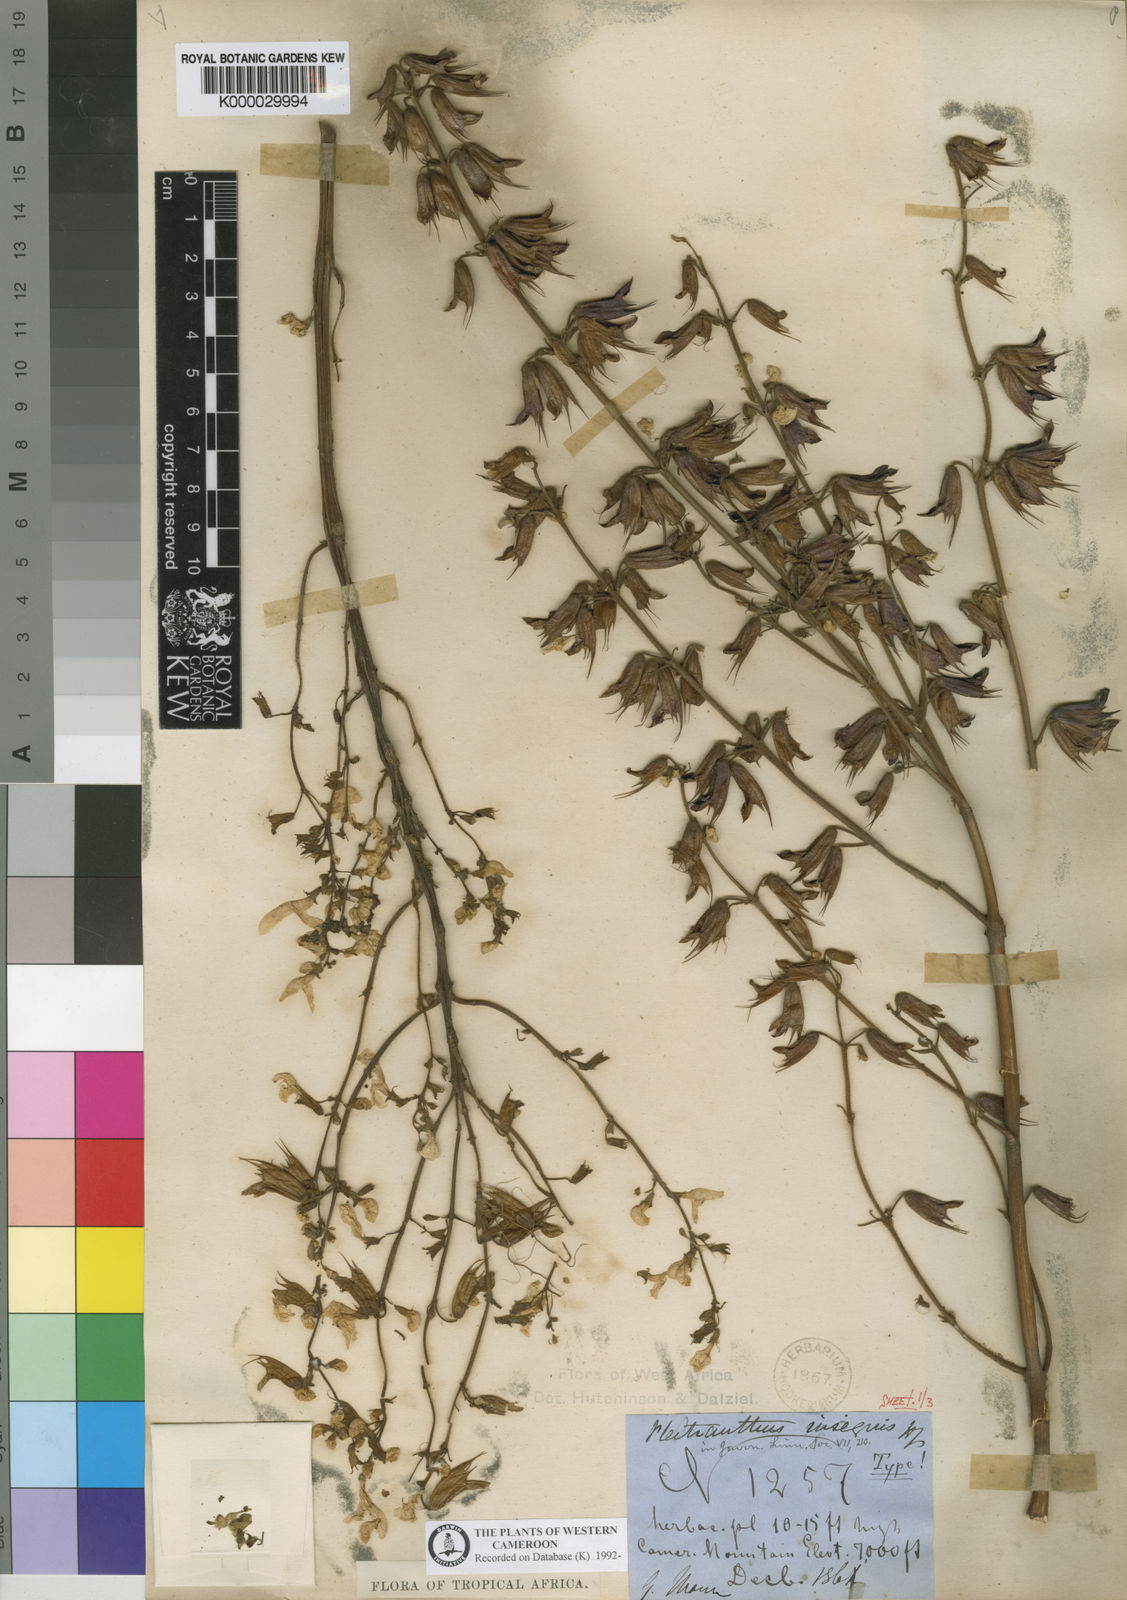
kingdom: Plantae
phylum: Tracheophyta
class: Magnoliopsida
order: Lamiales
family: Lamiaceae
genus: Coleus
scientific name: Coleus insignis
